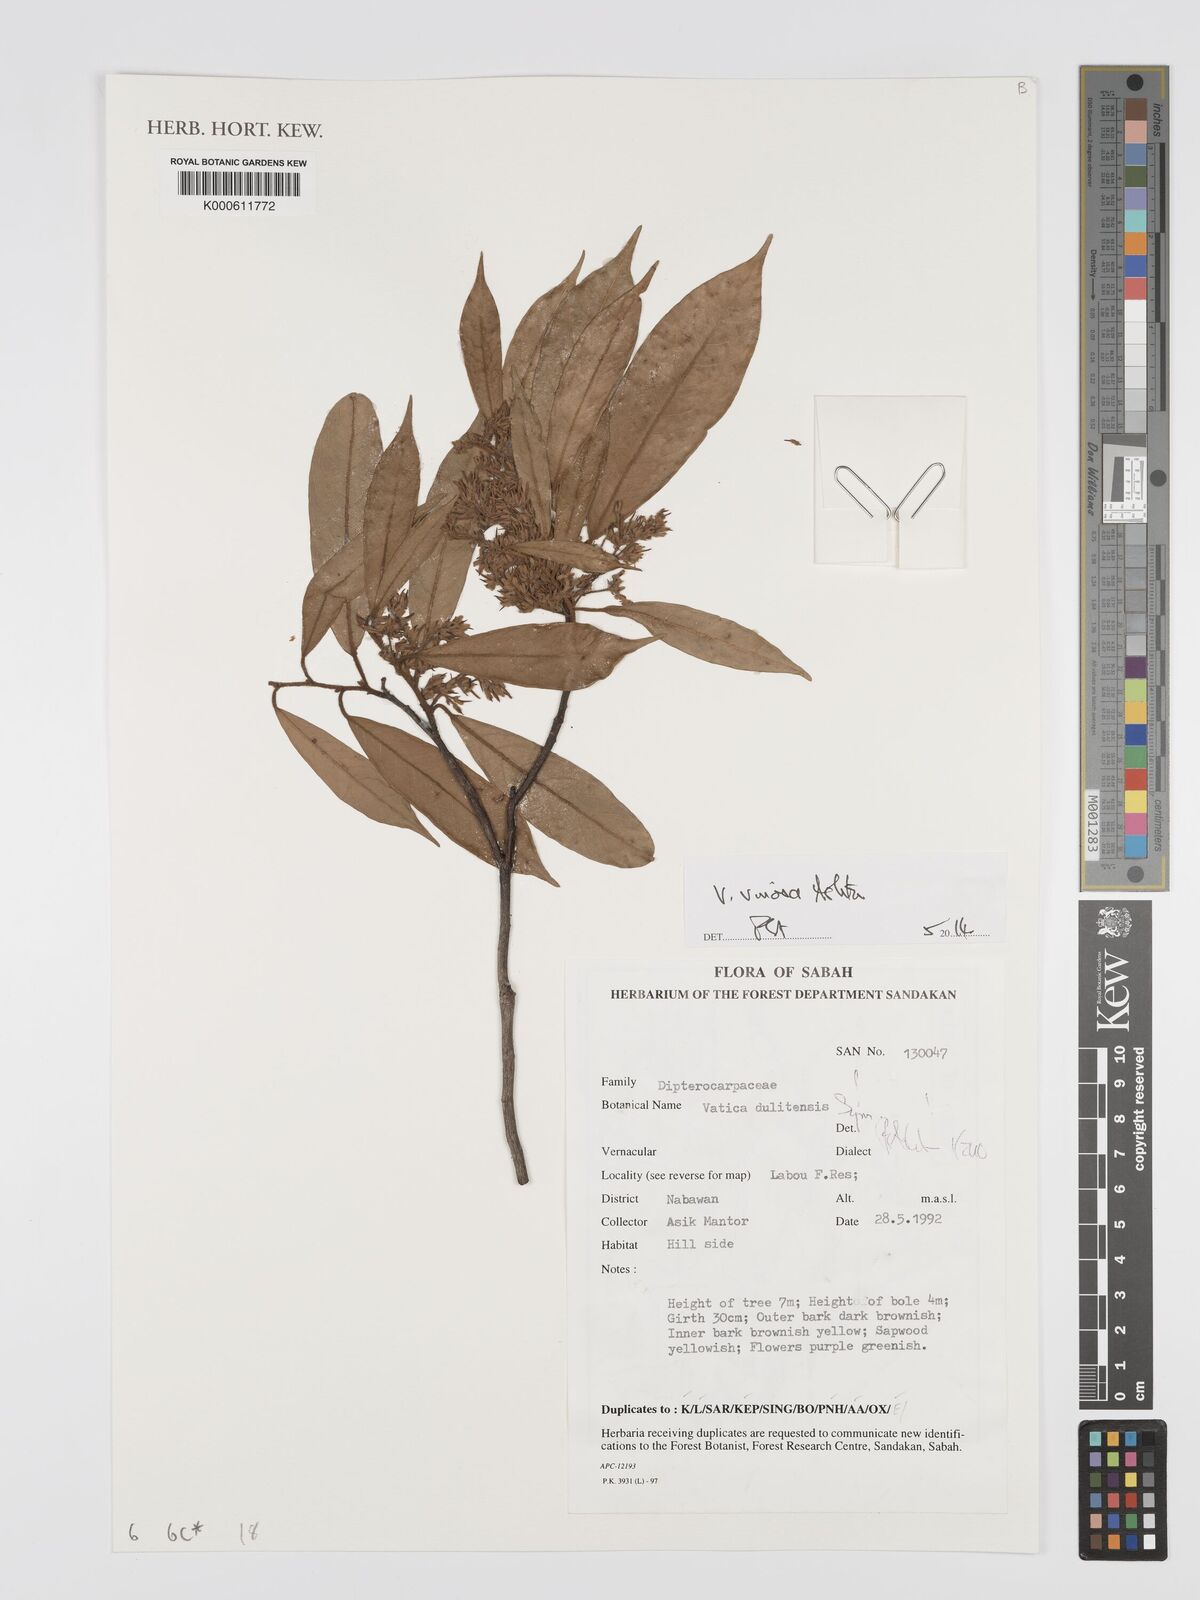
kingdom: Plantae
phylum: Tracheophyta
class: Magnoliopsida
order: Malvales
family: Dipterocarpaceae
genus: Vatica
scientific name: Vatica dulitensis
